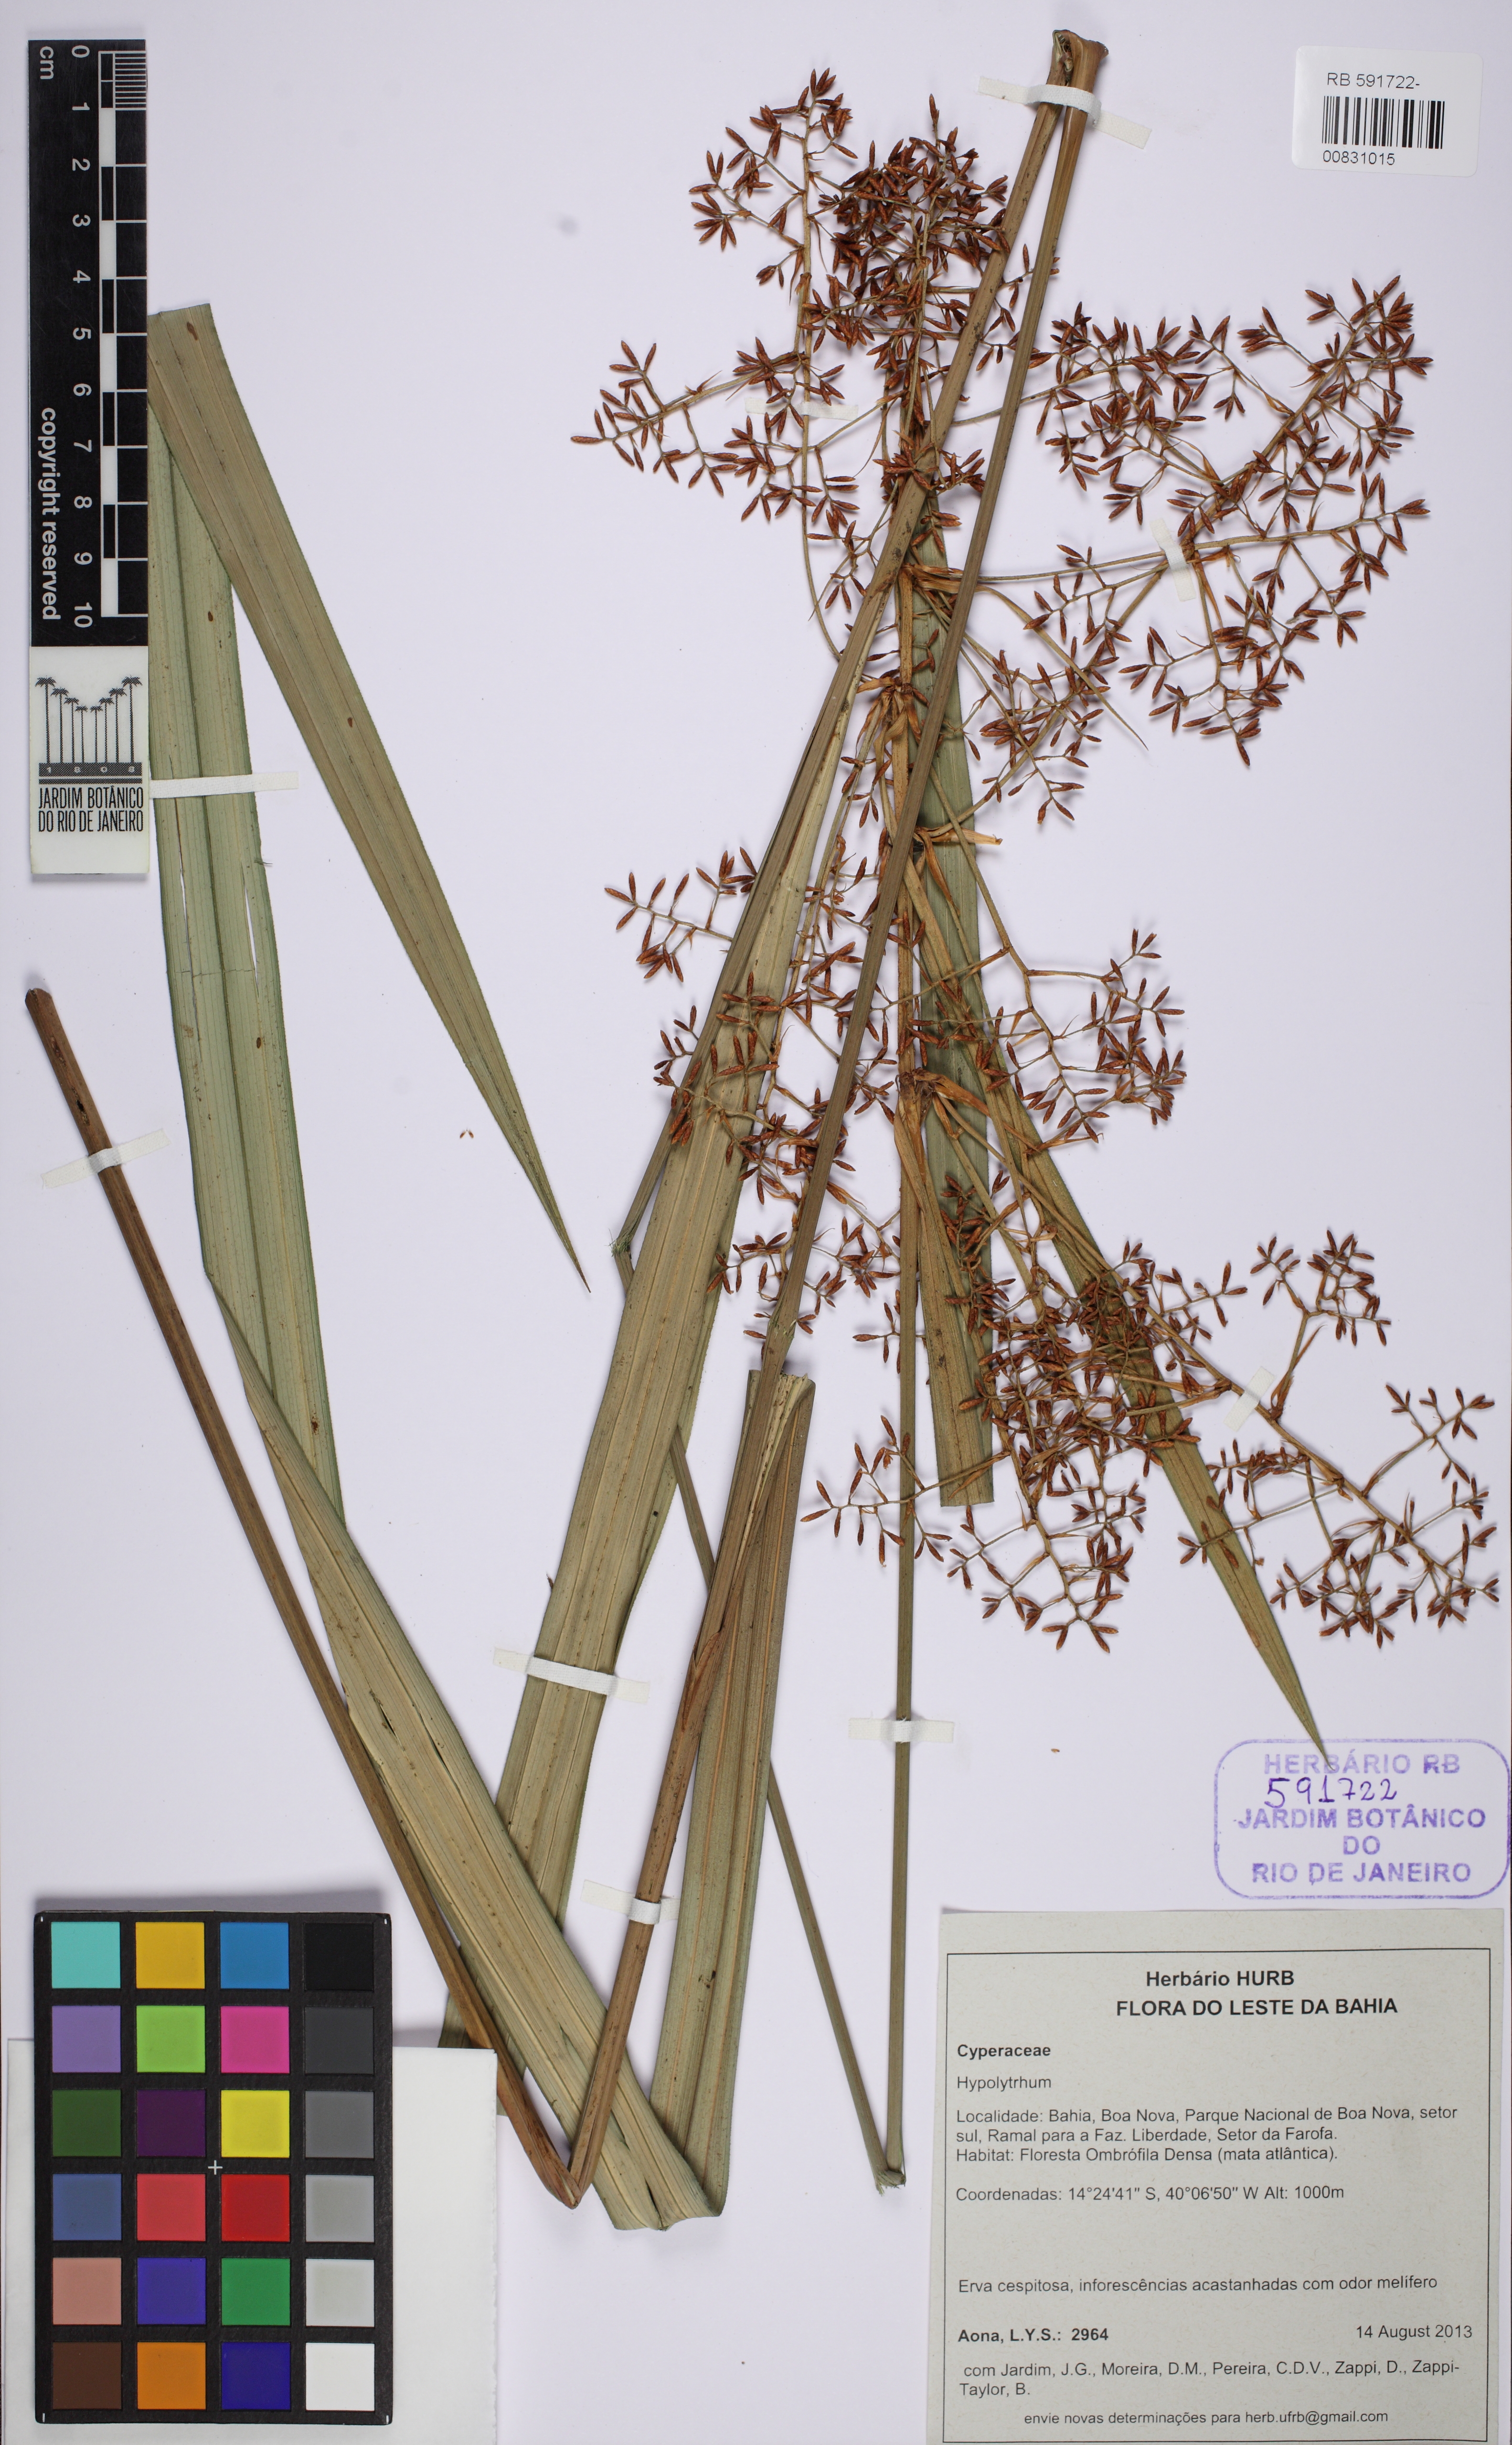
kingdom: Plantae
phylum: Tracheophyta
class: Liliopsida
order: Poales
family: Cyperaceae
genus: Hypolytrum
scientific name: Hypolytrum schraderianum
